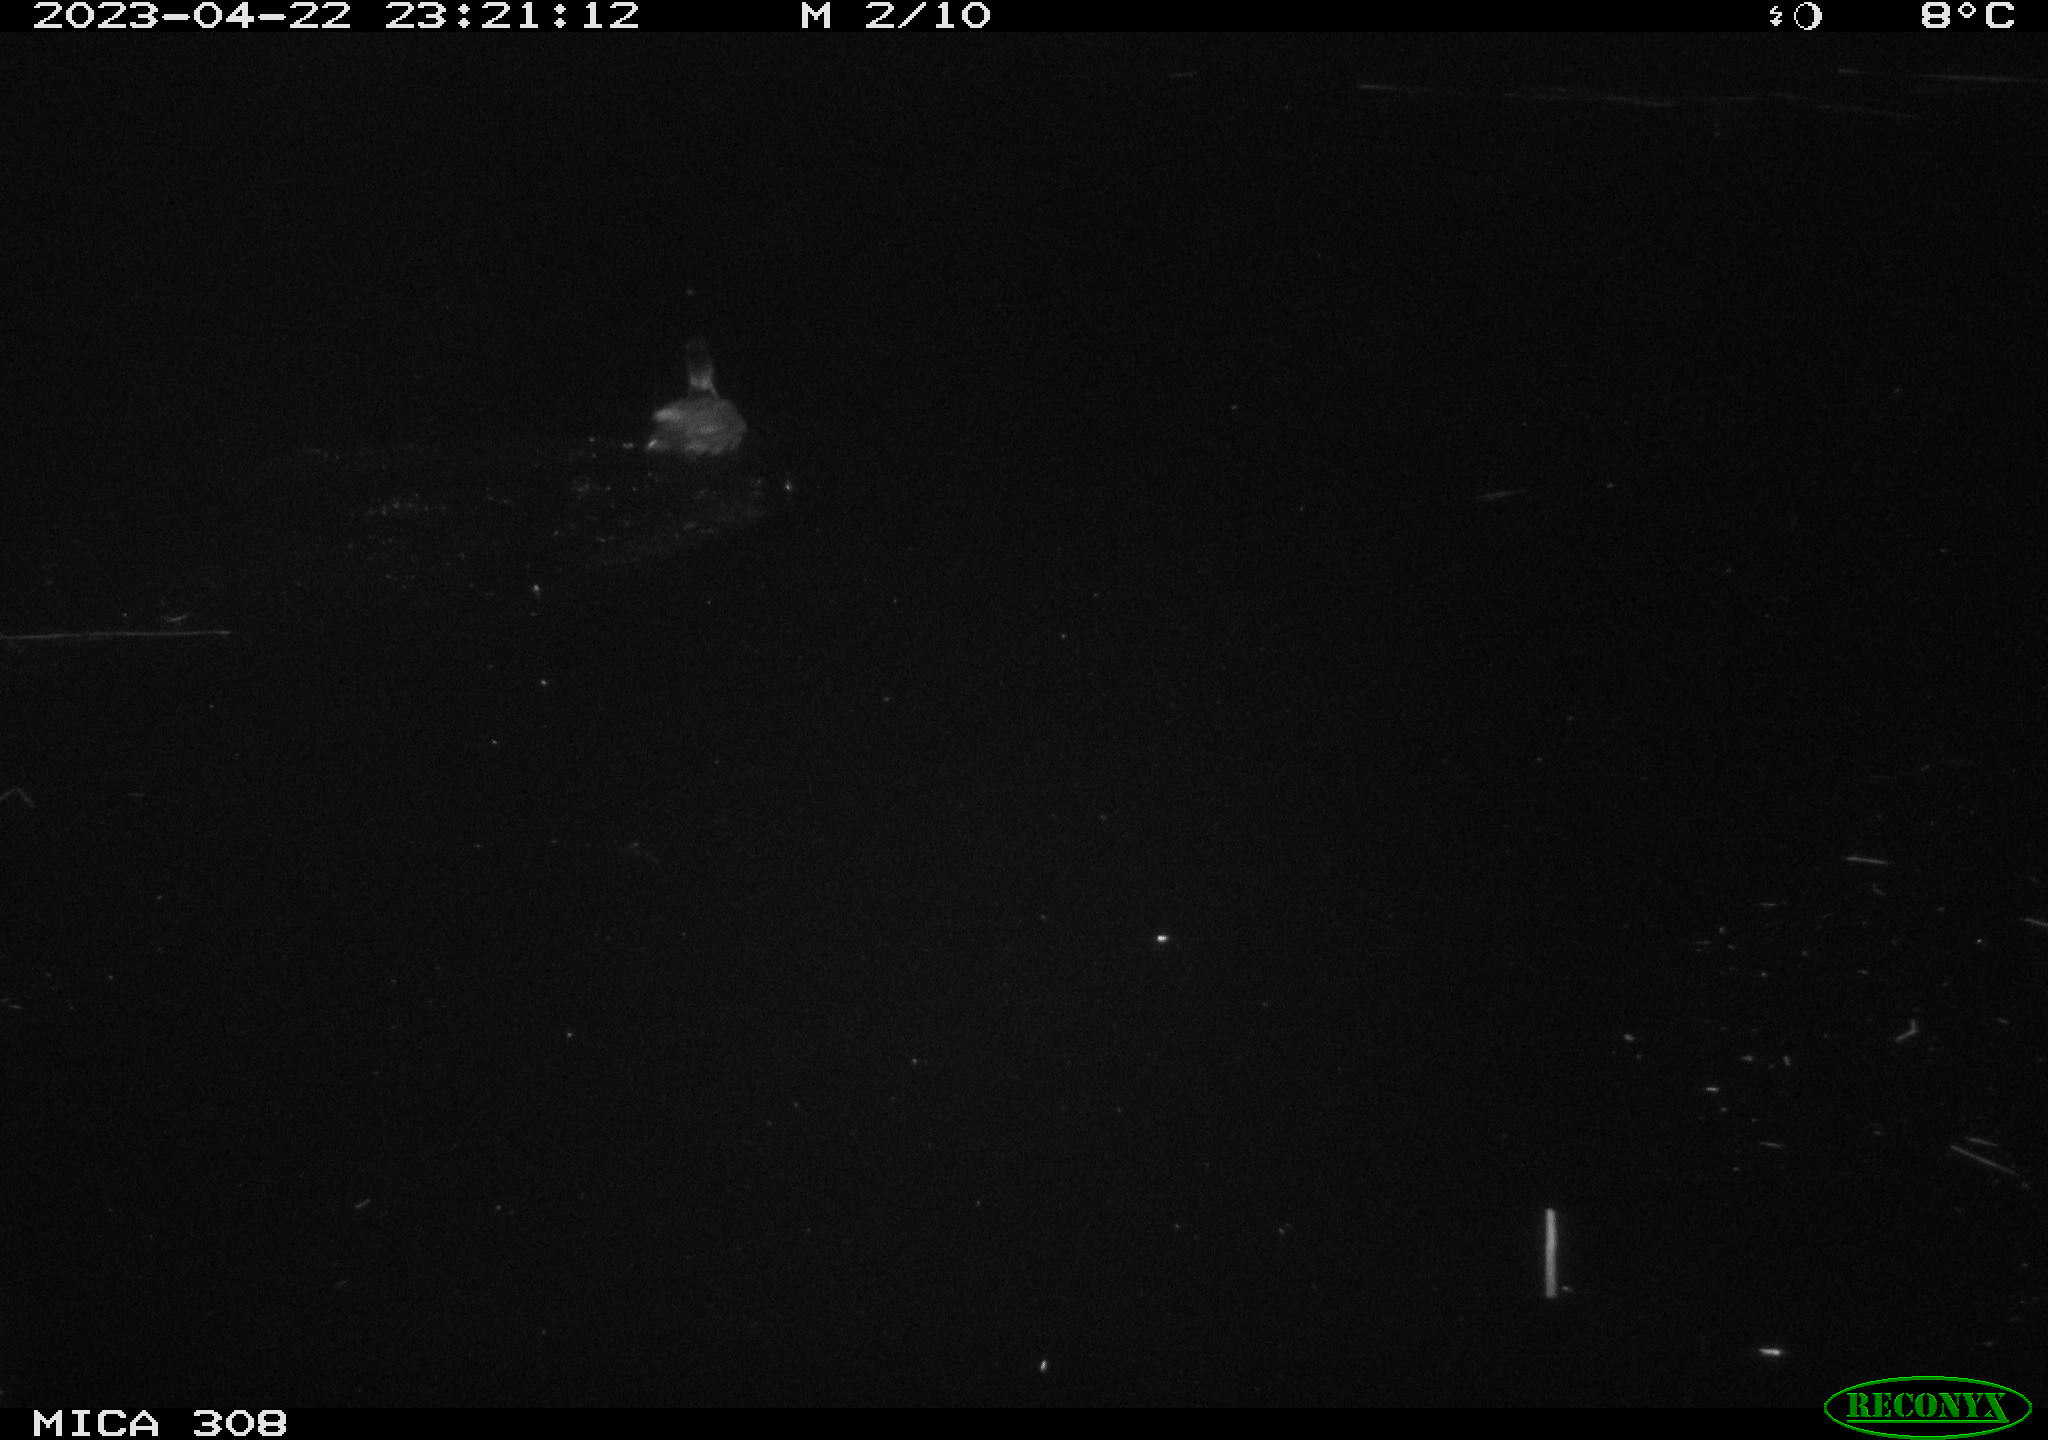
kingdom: Animalia
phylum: Chordata
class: Aves
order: Gruiformes
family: Rallidae
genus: Fulica
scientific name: Fulica atra
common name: Eurasian coot
